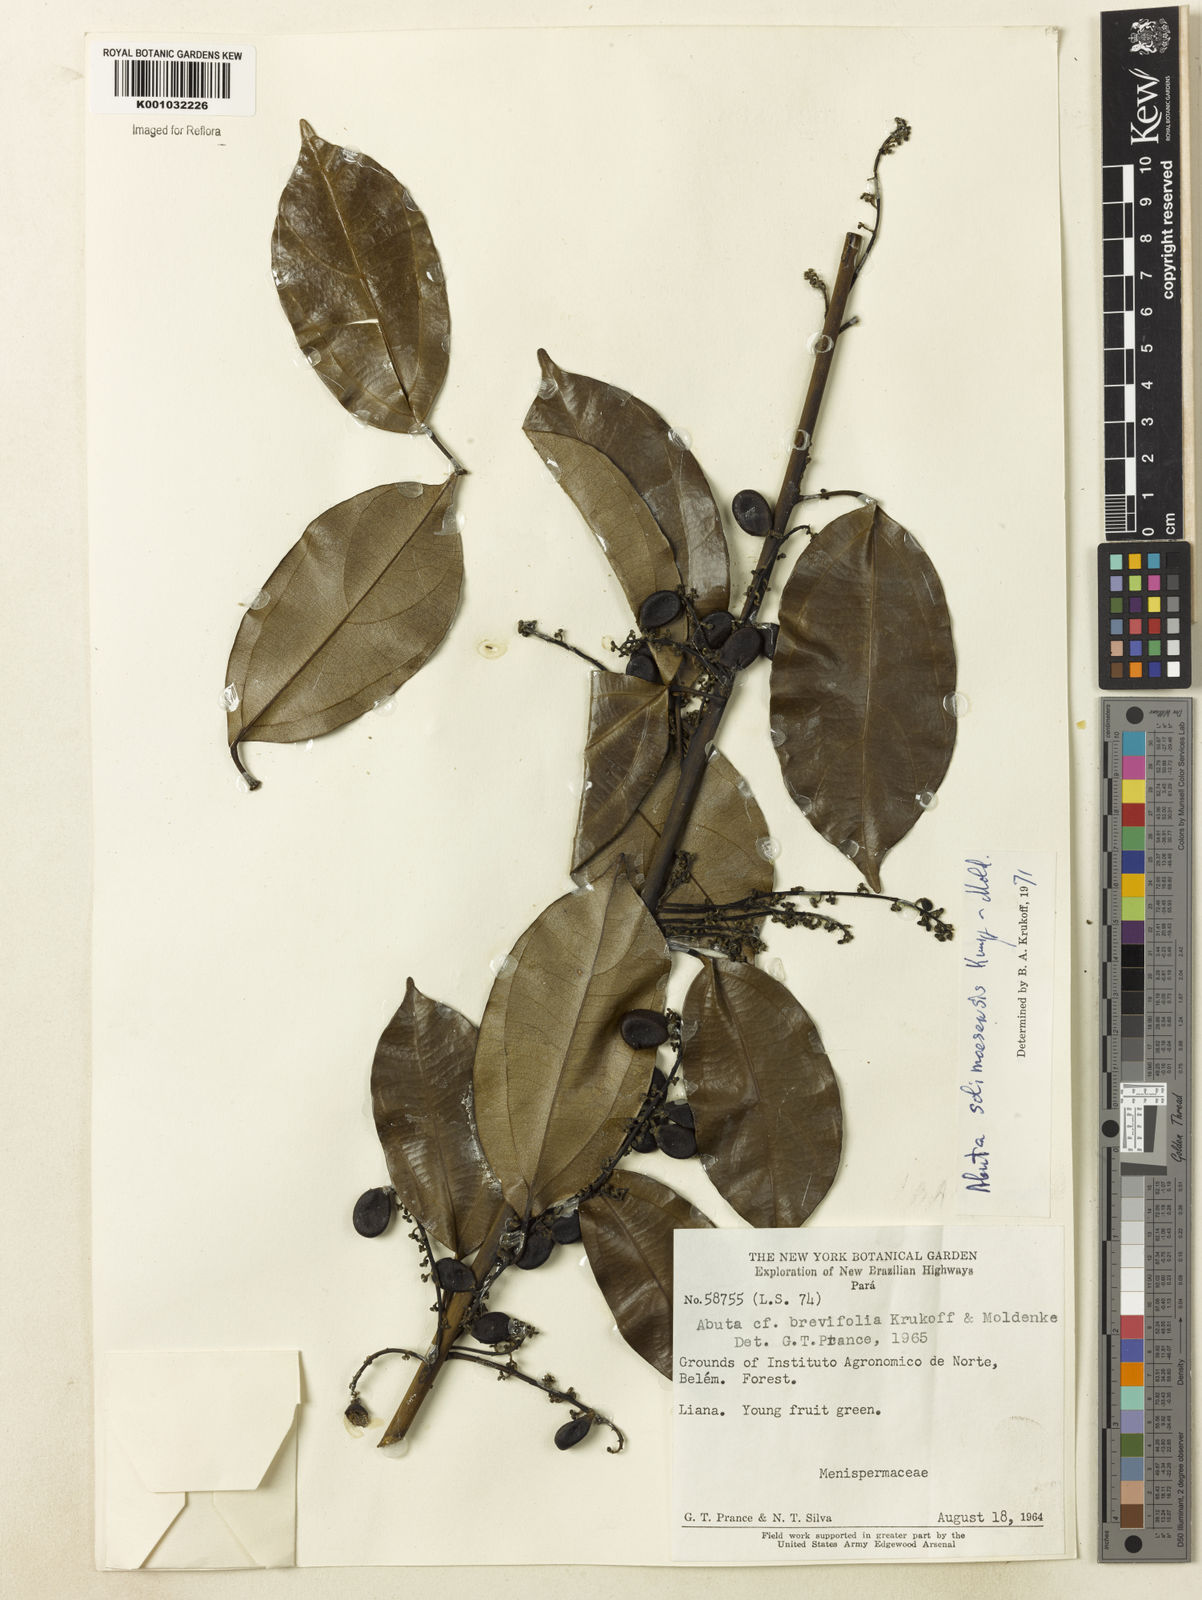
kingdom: Plantae
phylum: Tracheophyta
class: Magnoliopsida
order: Ranunculales
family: Menispermaceae
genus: Abuta
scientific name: Abuta solimoesensis
